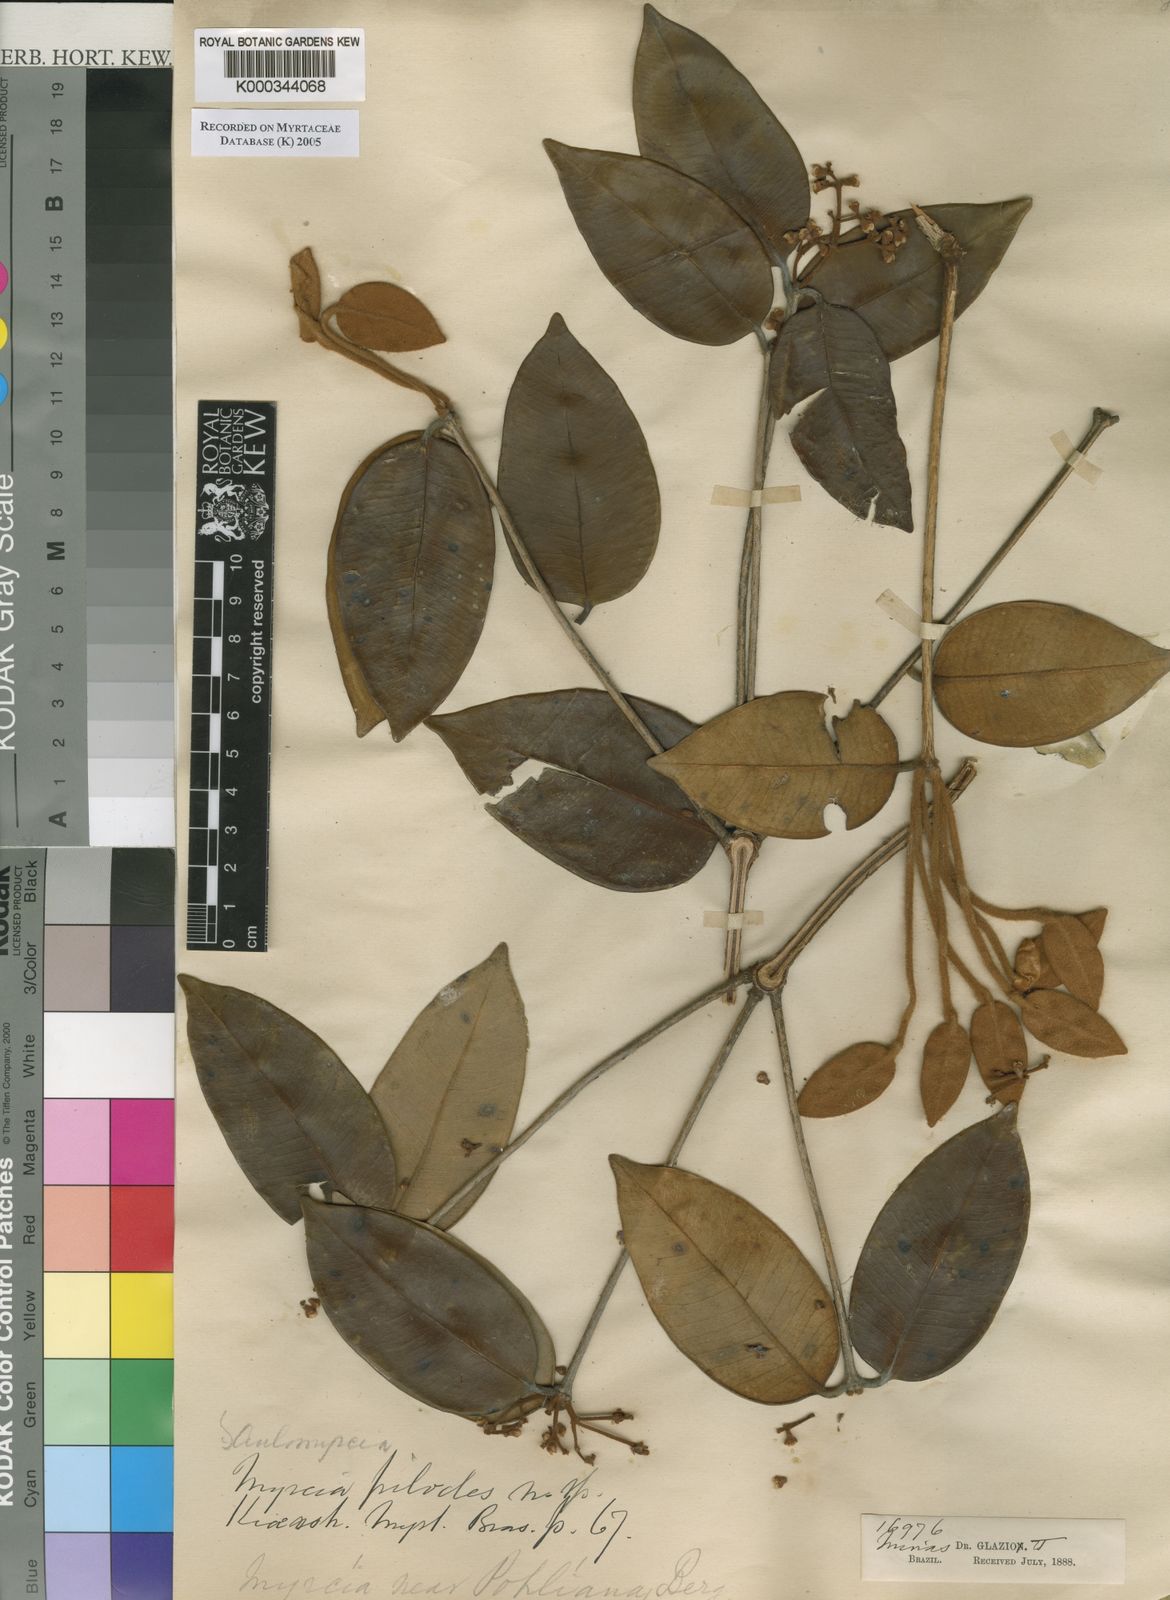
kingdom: Plantae
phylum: Tracheophyta
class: Magnoliopsida
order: Myrtales
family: Myrtaceae
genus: Myrcia
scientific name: Myrcia mutabilis
